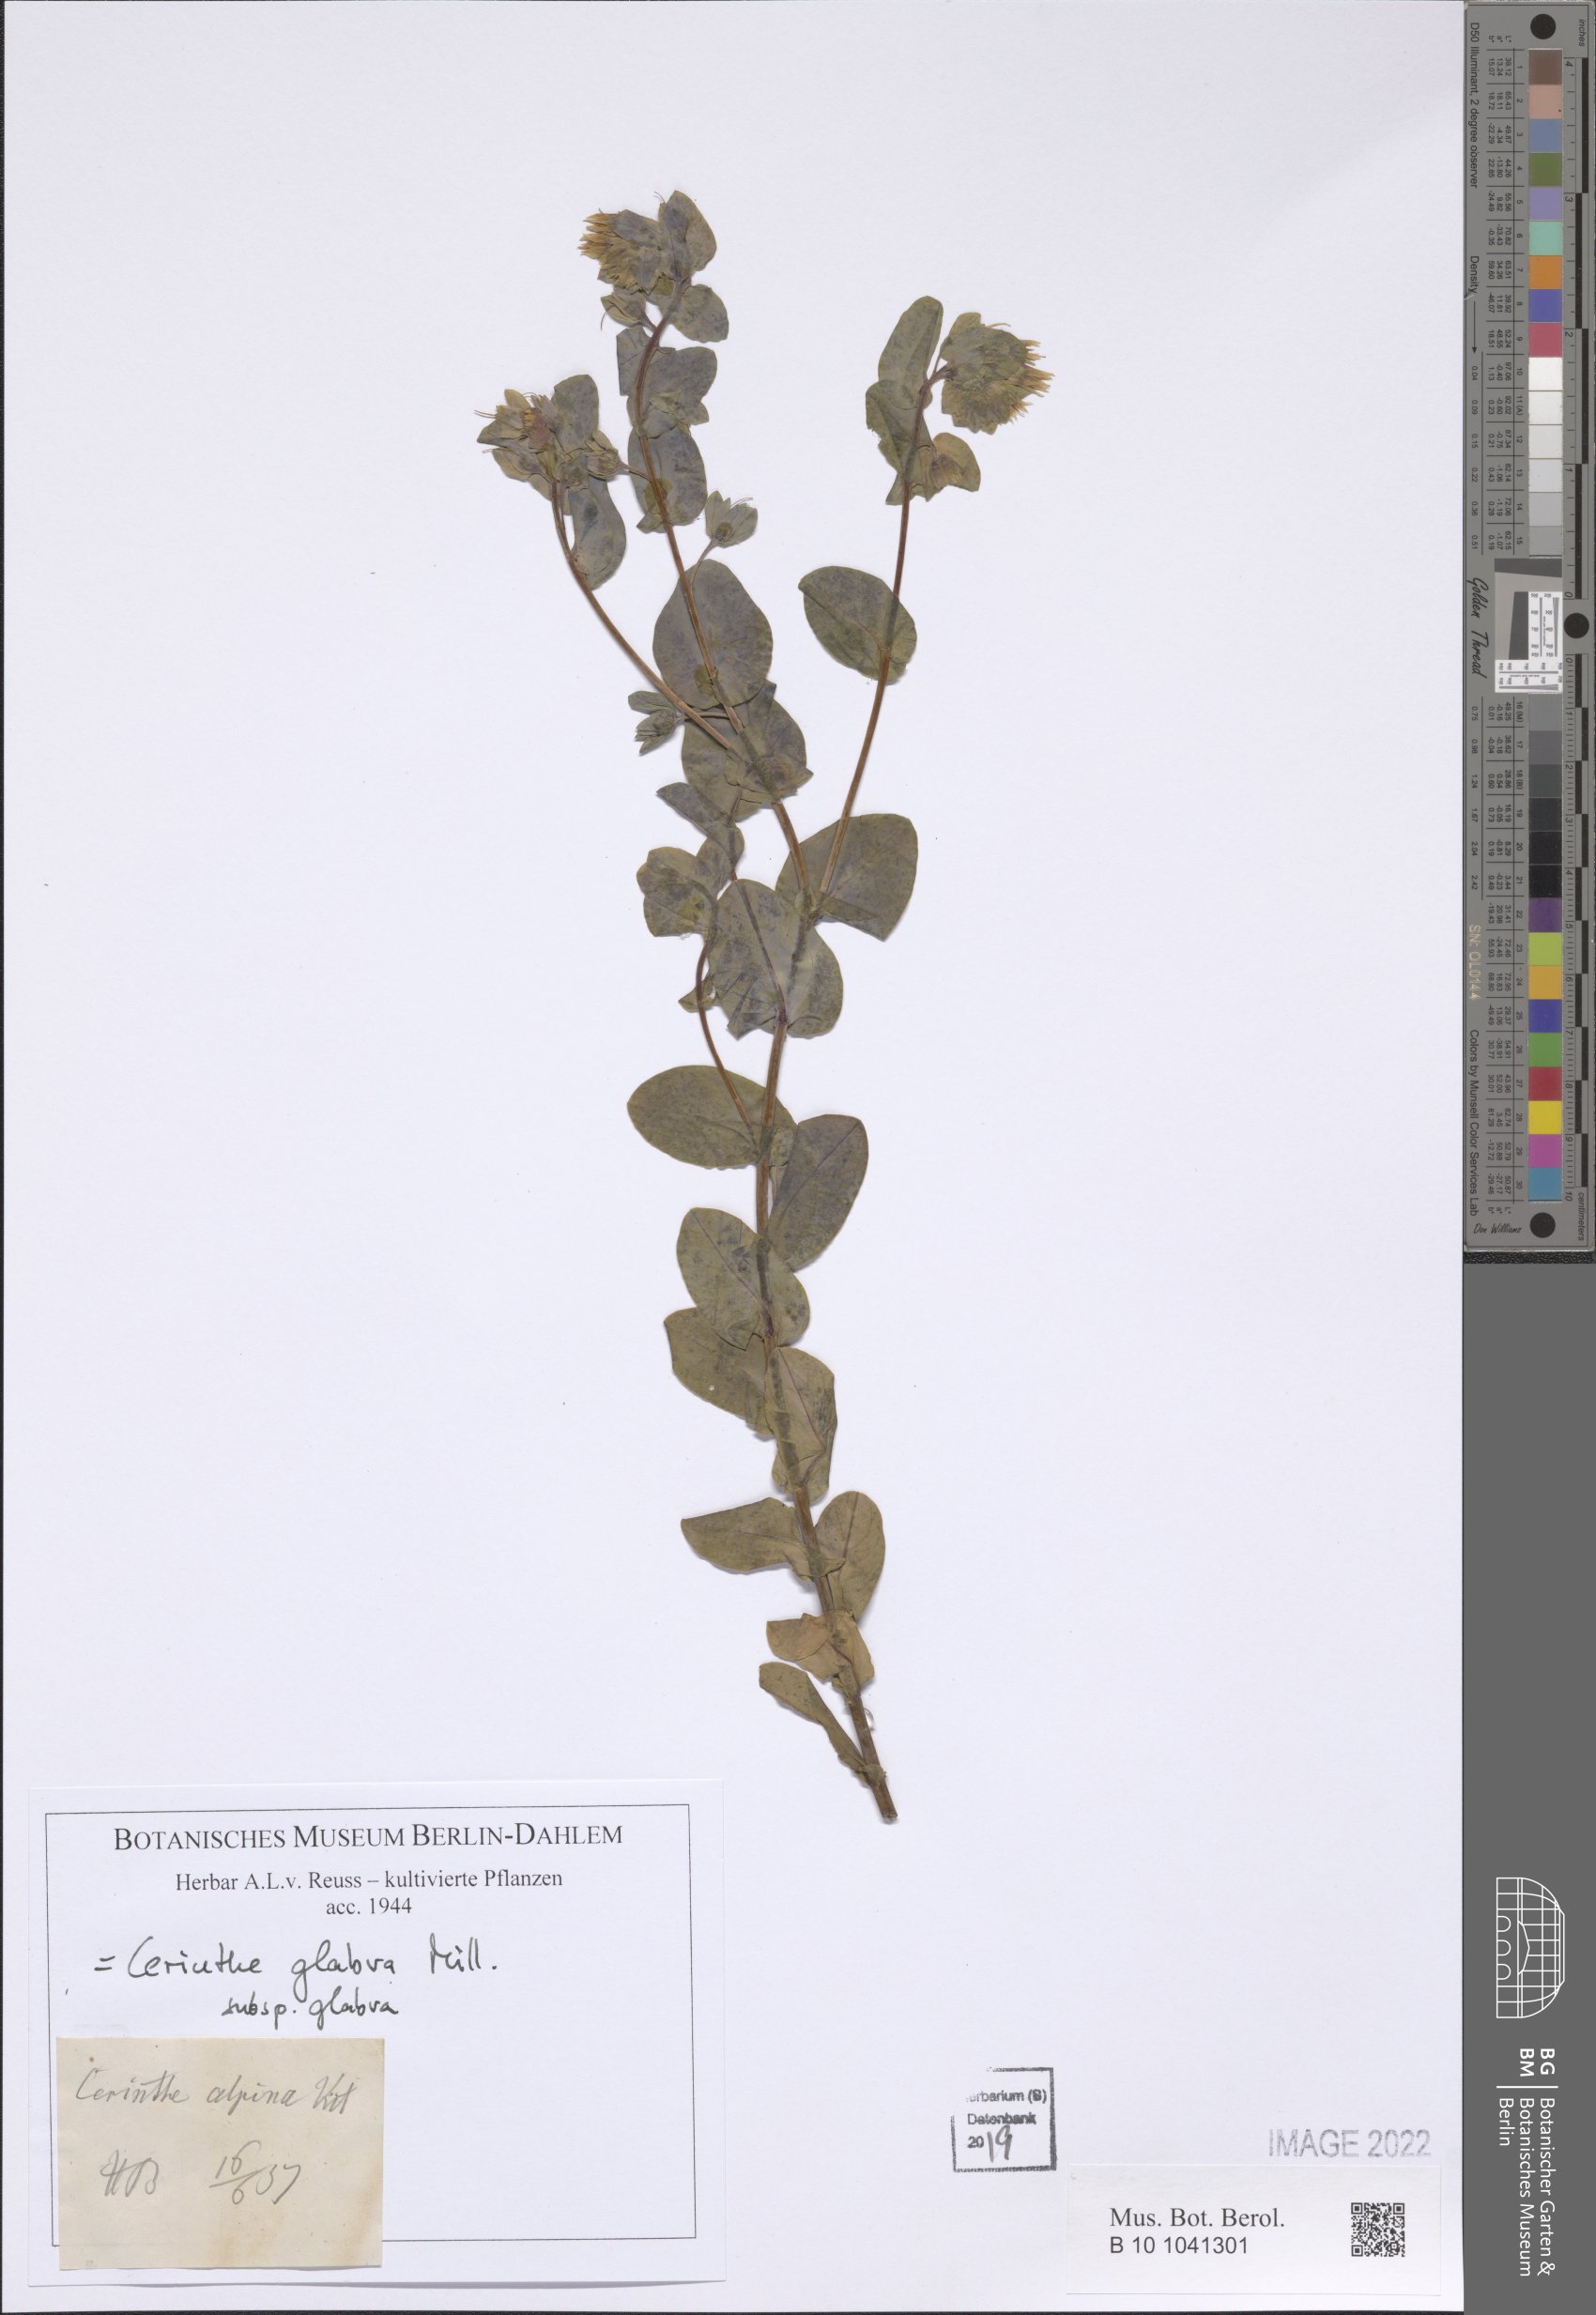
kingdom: Plantae
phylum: Tracheophyta
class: Magnoliopsida
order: Boraginales
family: Boraginaceae
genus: Cerinthe
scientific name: Cerinthe glabra
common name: Smooth honeywort
